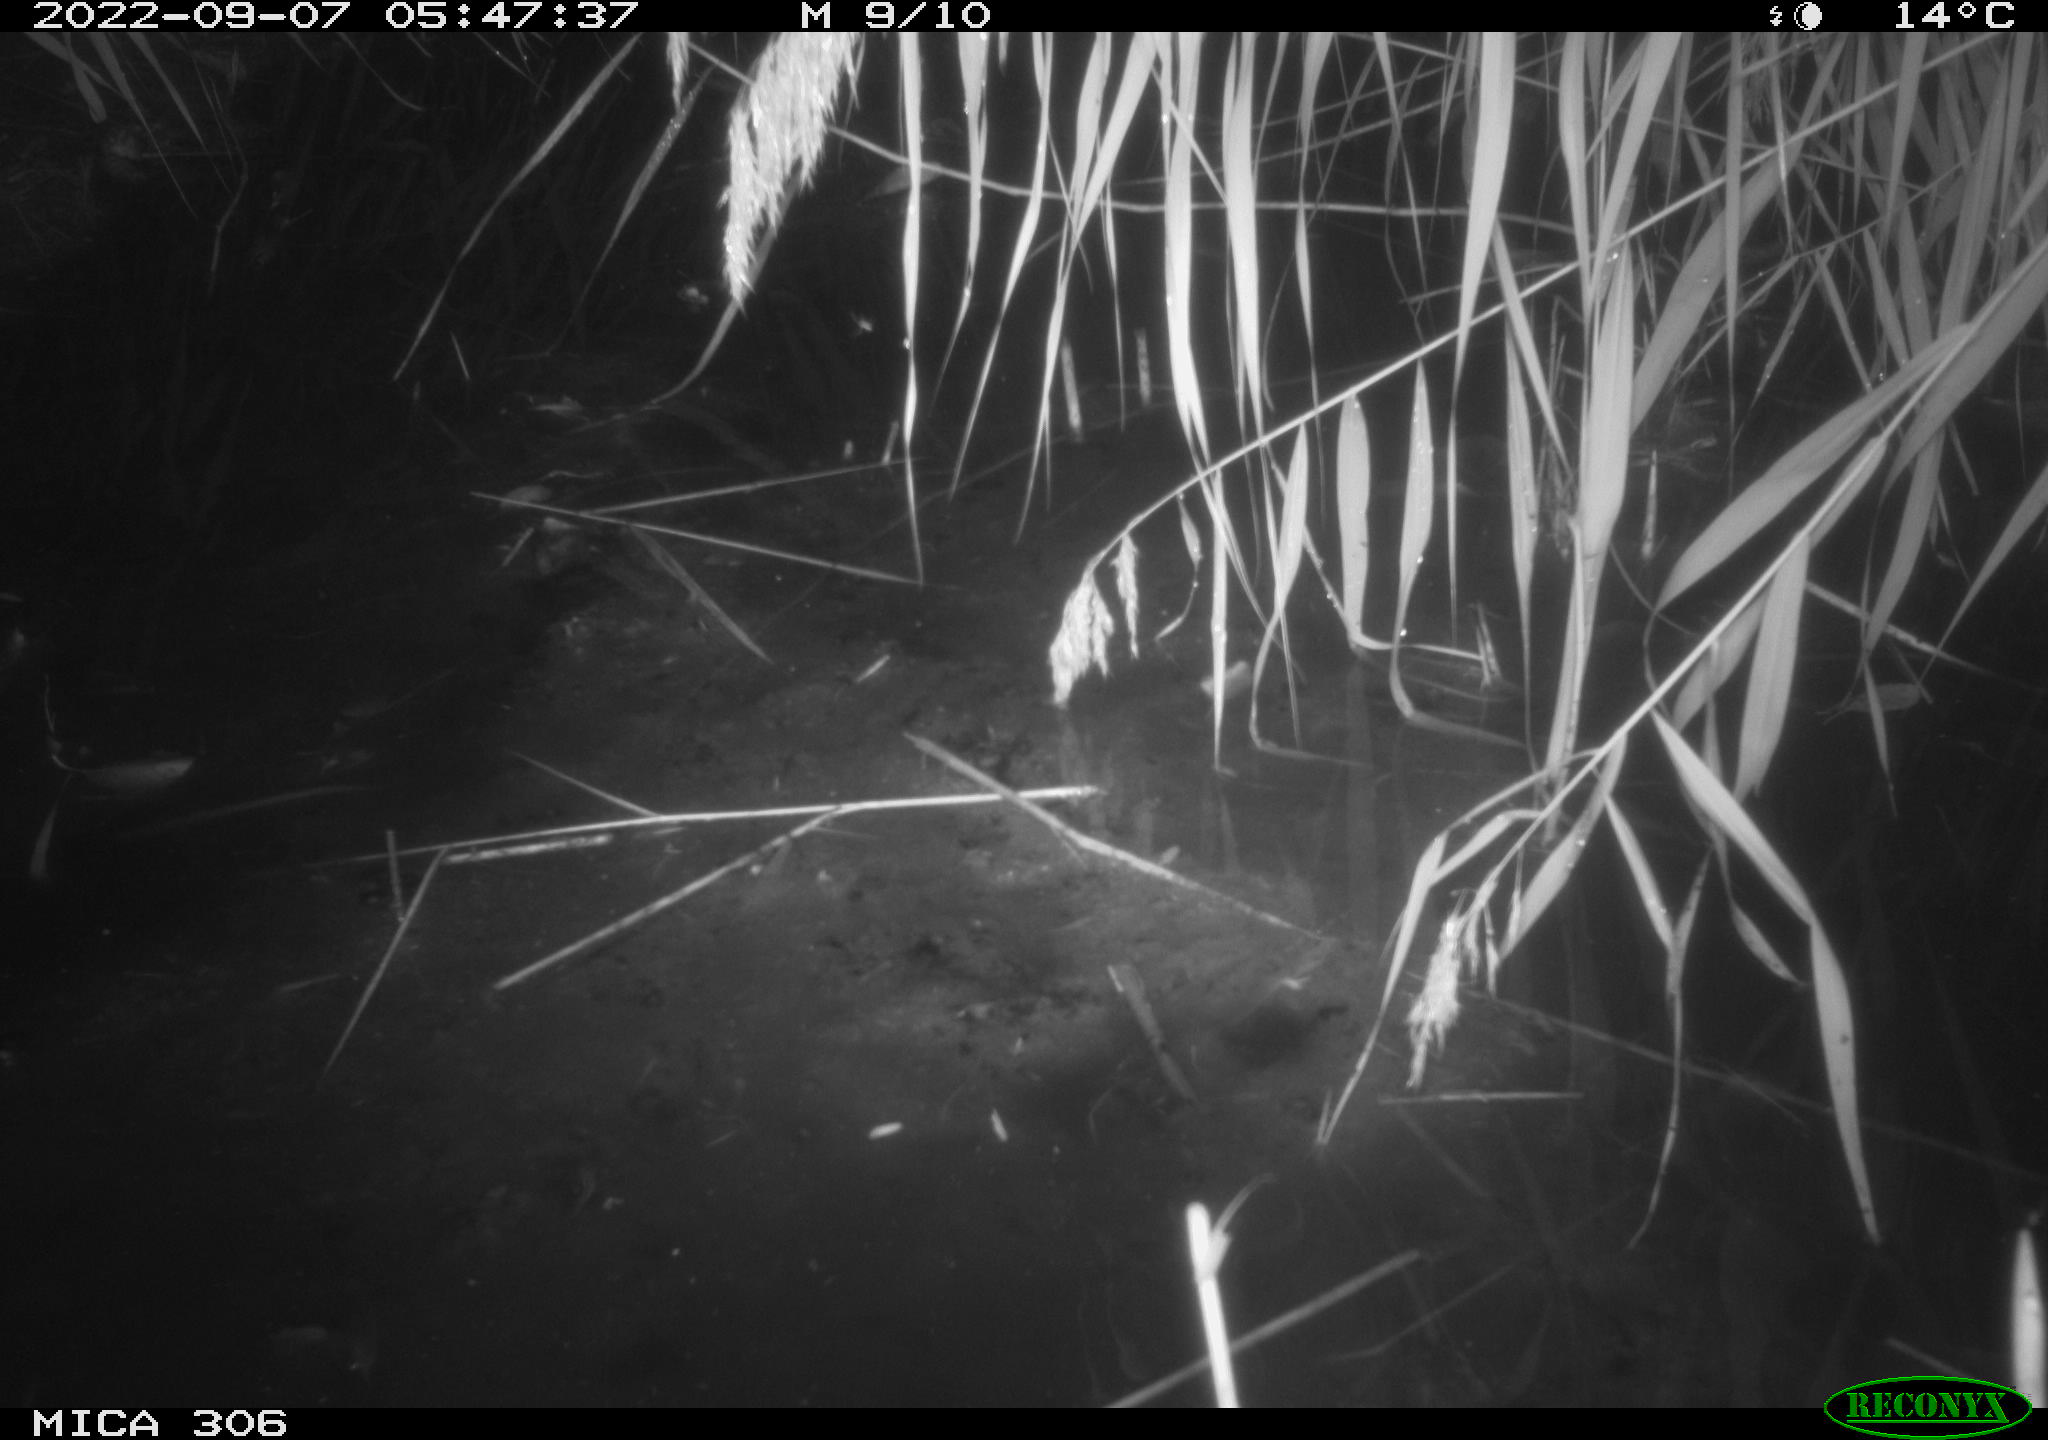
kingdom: Animalia
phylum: Chordata
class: Mammalia
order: Rodentia
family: Muridae
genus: Rattus
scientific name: Rattus norvegicus
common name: Brown rat
